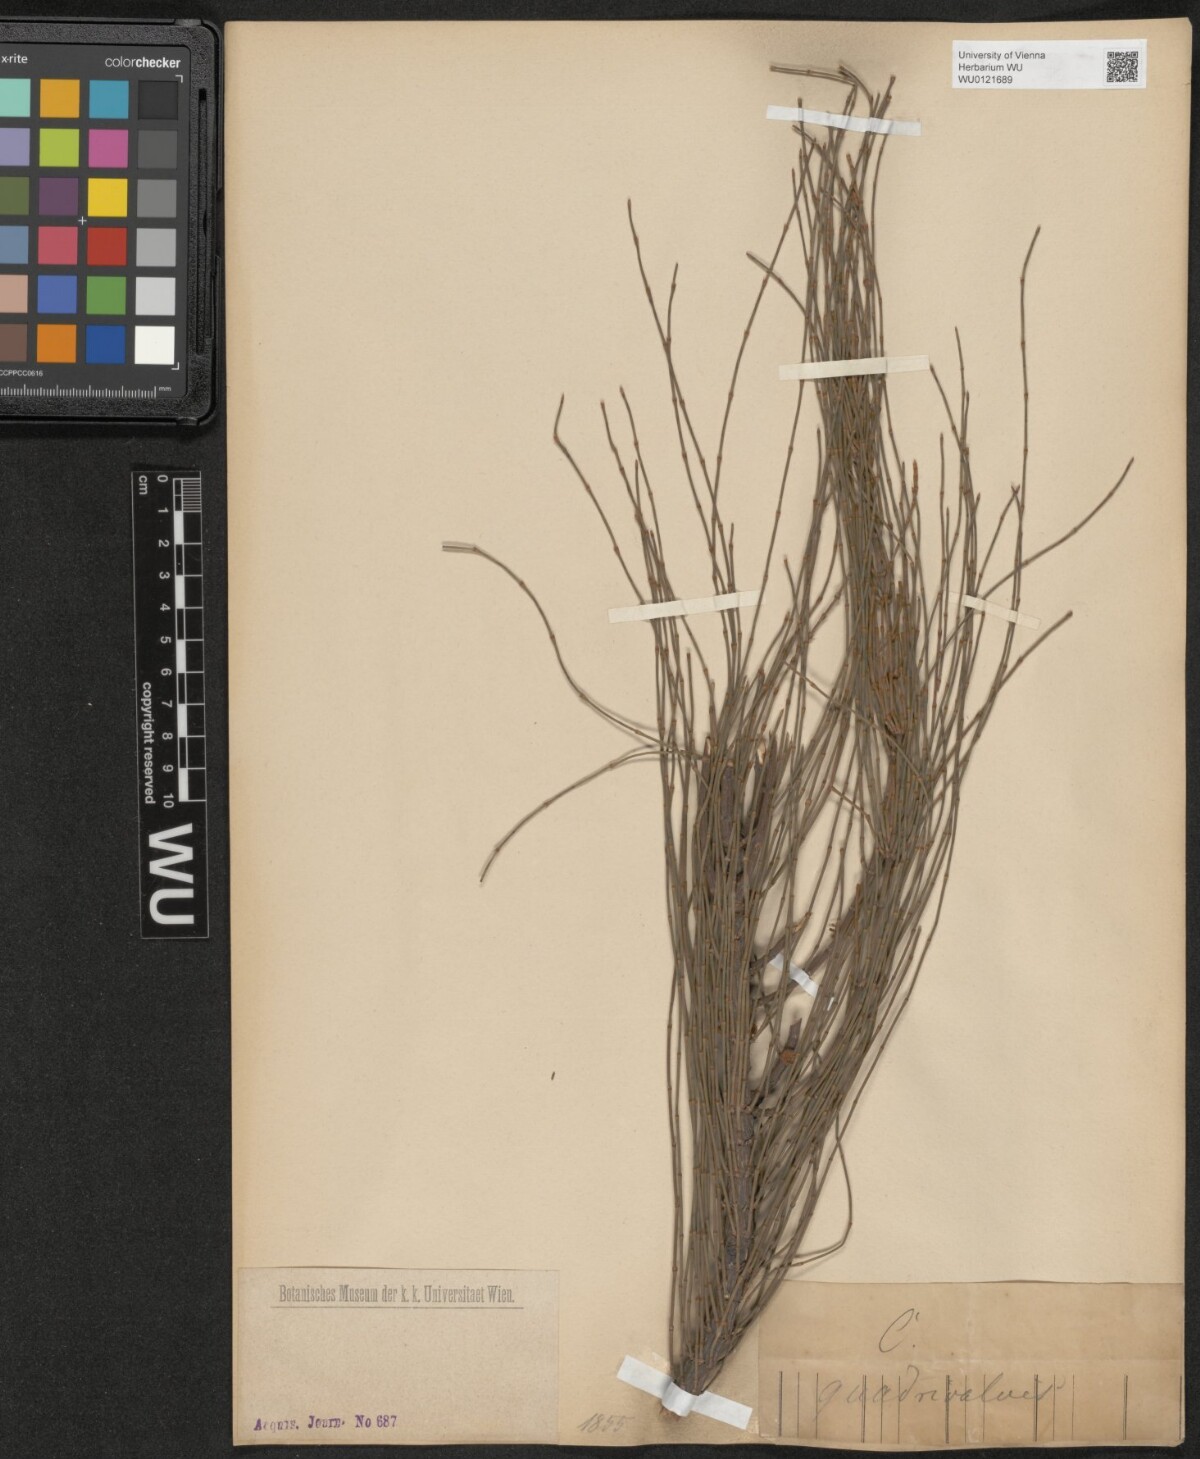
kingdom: Plantae
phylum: Tracheophyta
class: Magnoliopsida
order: Fagales
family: Casuarinaceae
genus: Allocasuarina
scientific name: Allocasuarina verticillata
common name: Drooping she-oak
